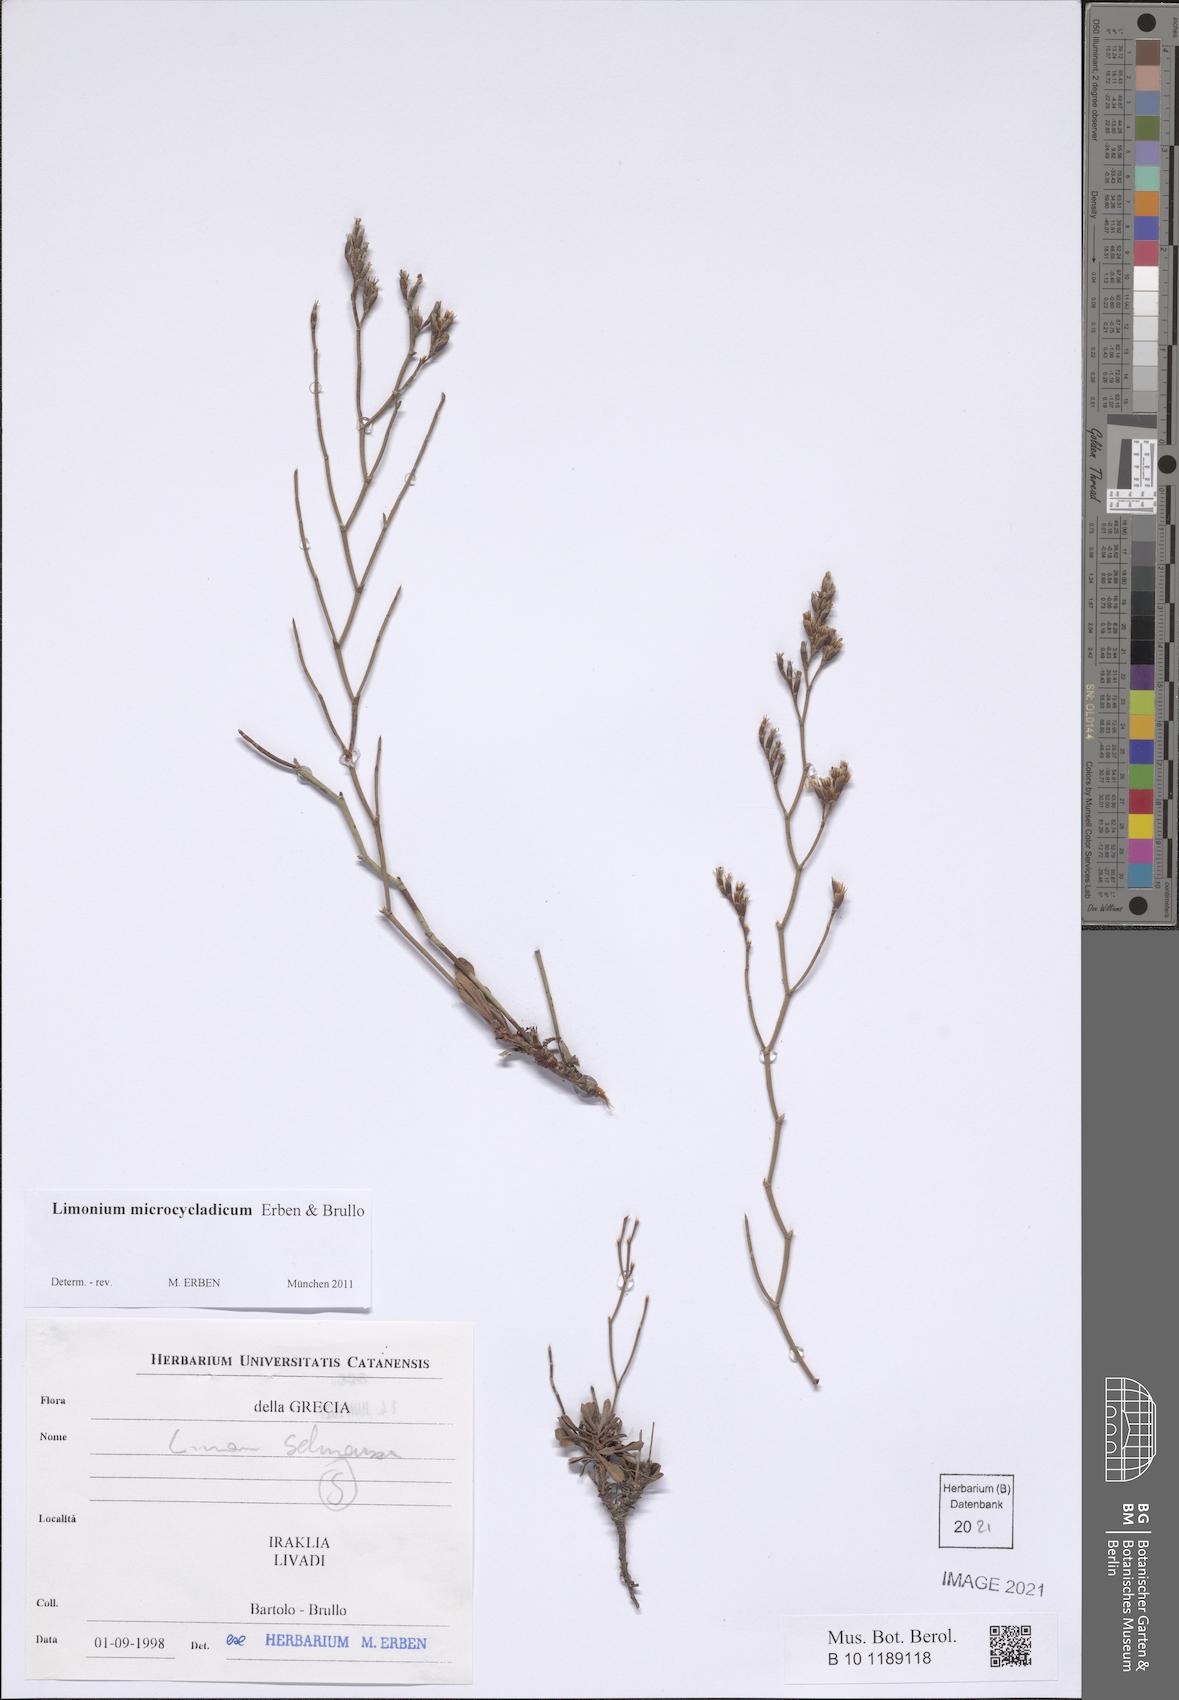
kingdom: Plantae
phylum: Tracheophyta
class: Magnoliopsida
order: Caryophyllales
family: Plumbaginaceae
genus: Limonium
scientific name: Limonium microcycladicum
